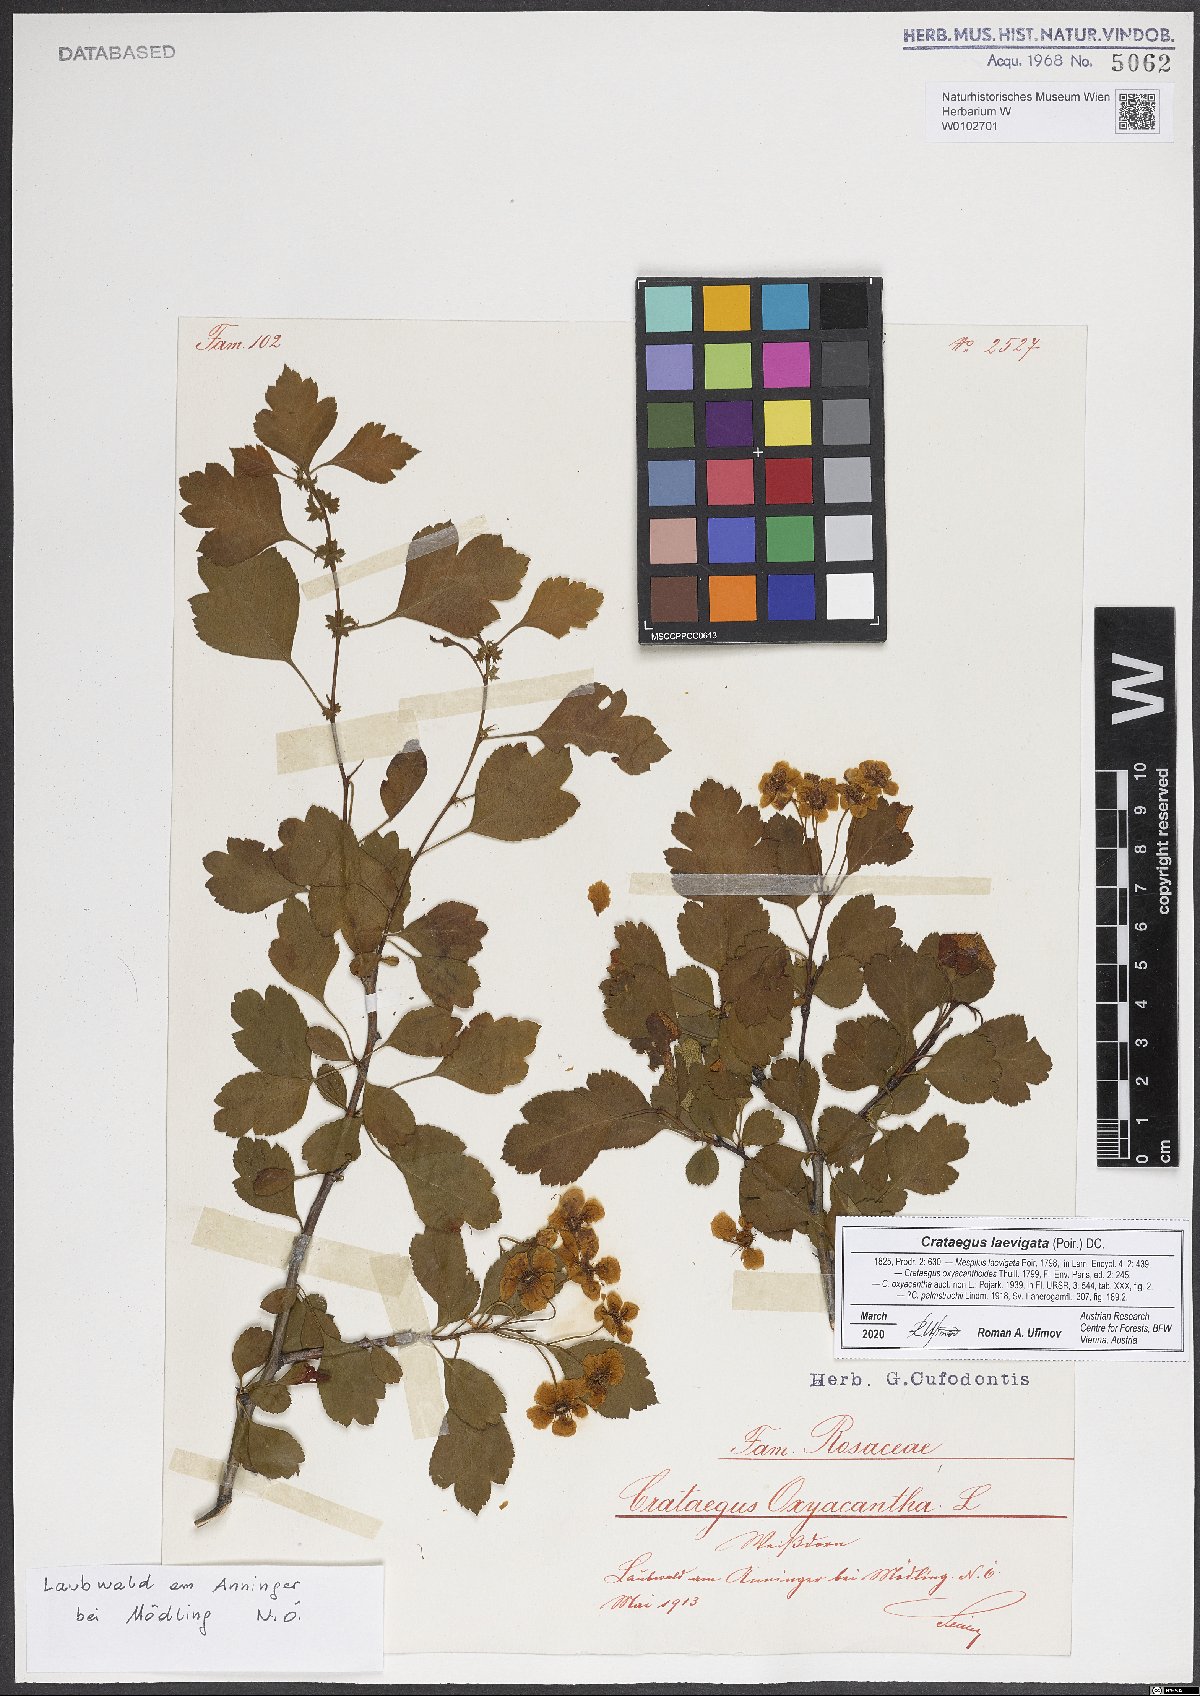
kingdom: Plantae
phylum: Tracheophyta
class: Magnoliopsida
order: Rosales
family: Rosaceae
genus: Crataegus
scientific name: Crataegus laevigata
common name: Midland hawthorn
